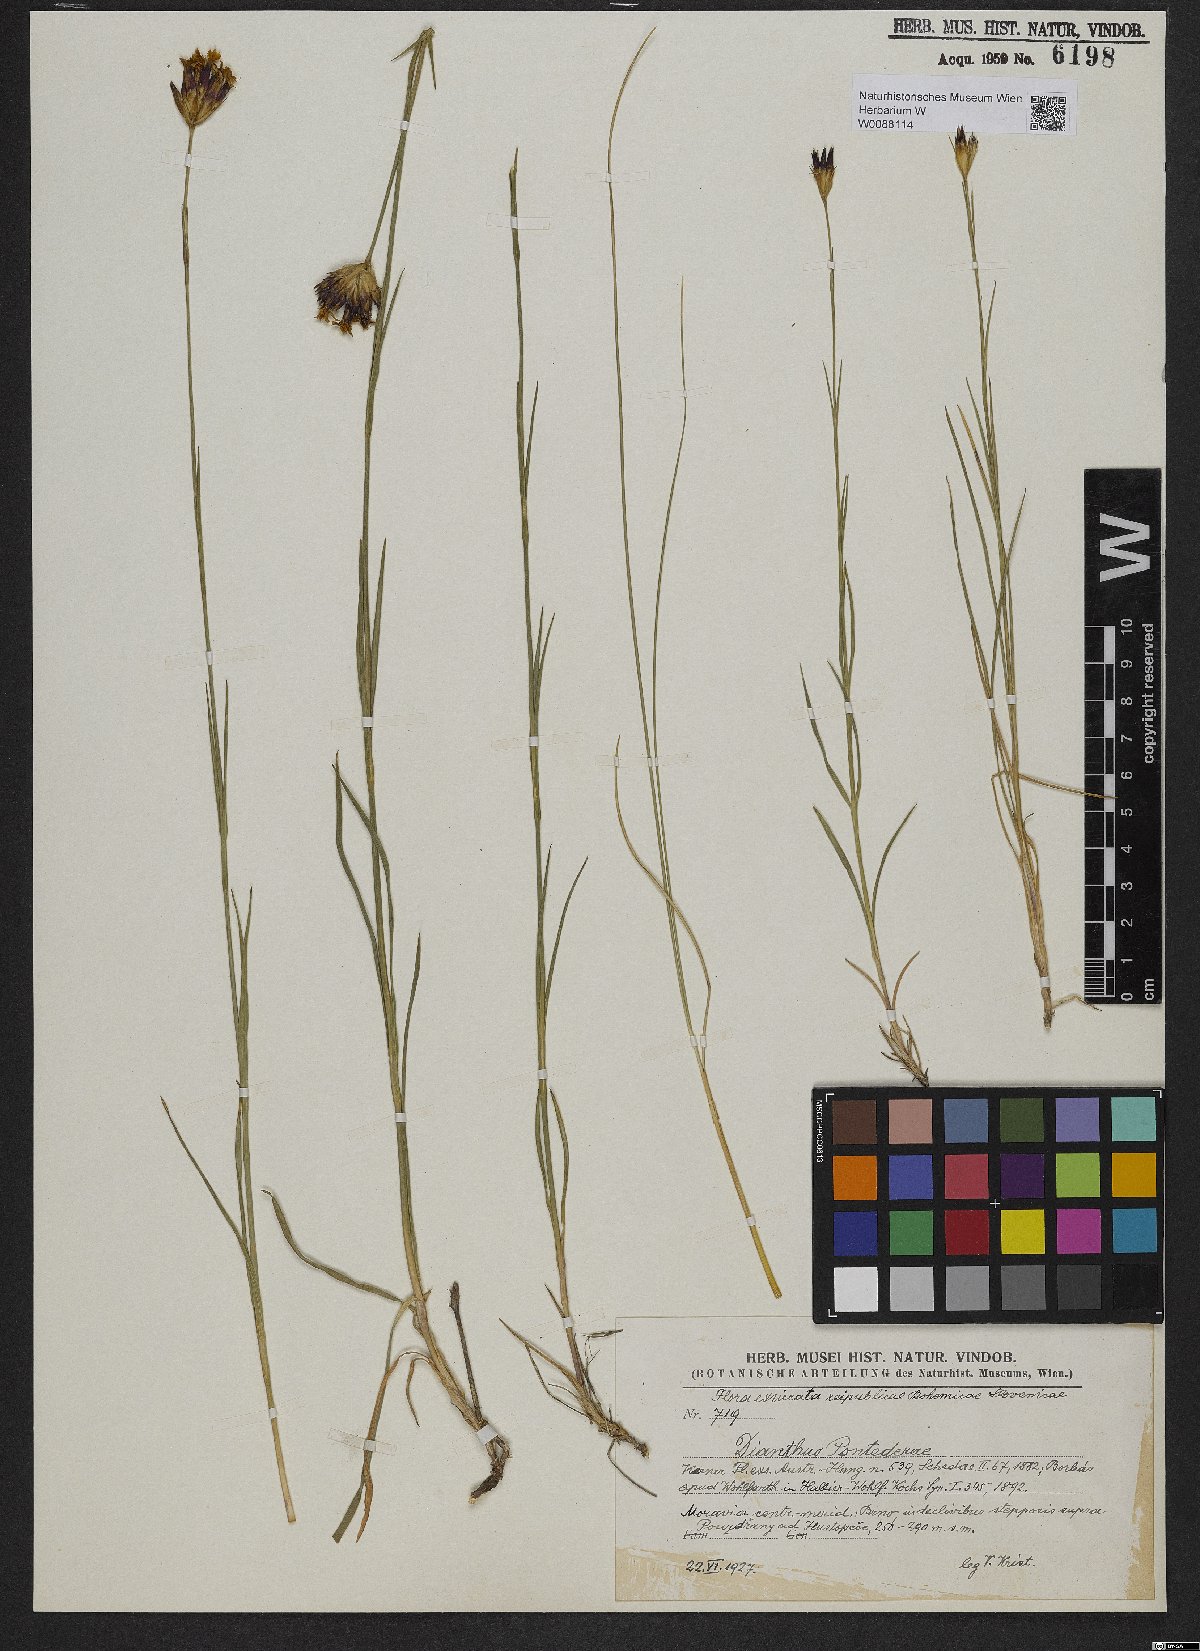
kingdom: Plantae
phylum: Tracheophyta
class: Magnoliopsida
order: Caryophyllales
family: Caryophyllaceae
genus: Dianthus
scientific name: Dianthus pontederae
